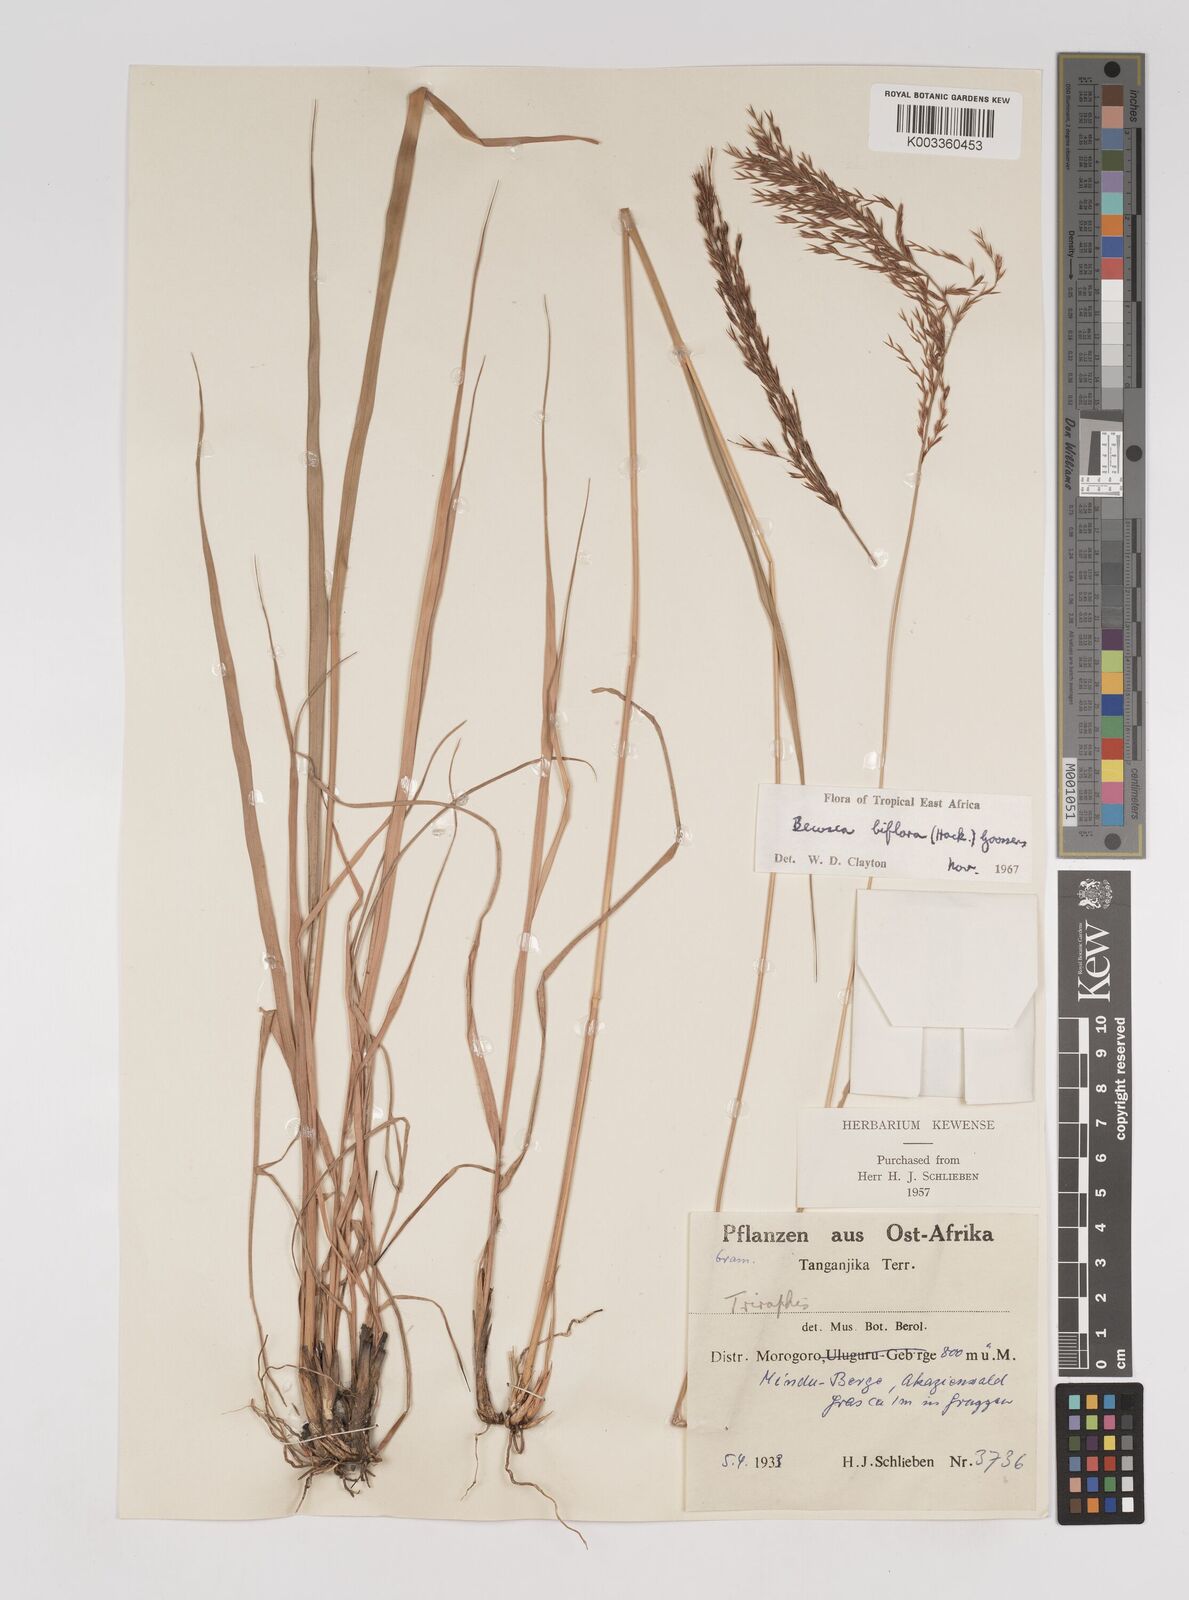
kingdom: Plantae
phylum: Tracheophyta
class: Liliopsida
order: Poales
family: Poaceae
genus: Bewsia
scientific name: Bewsia biflora
